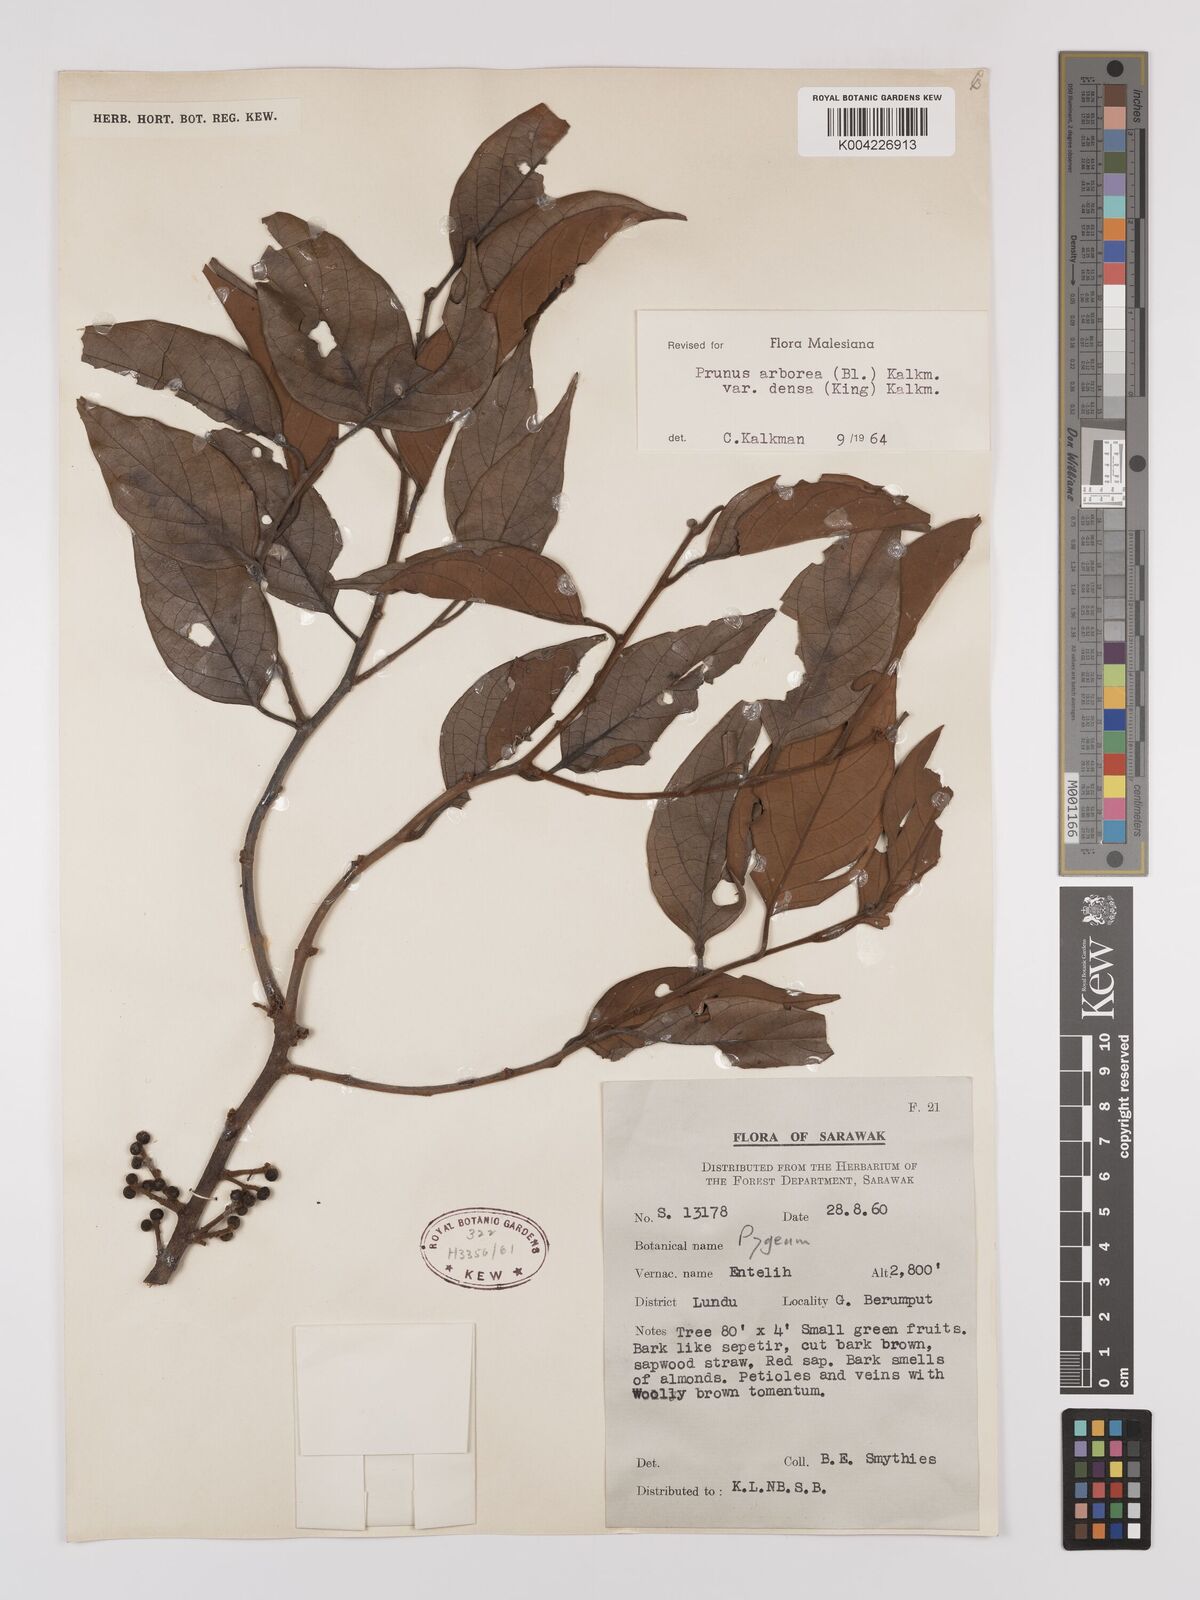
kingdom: Plantae
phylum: Tracheophyta
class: Magnoliopsida
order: Rosales
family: Rosaceae
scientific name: Rosaceae
